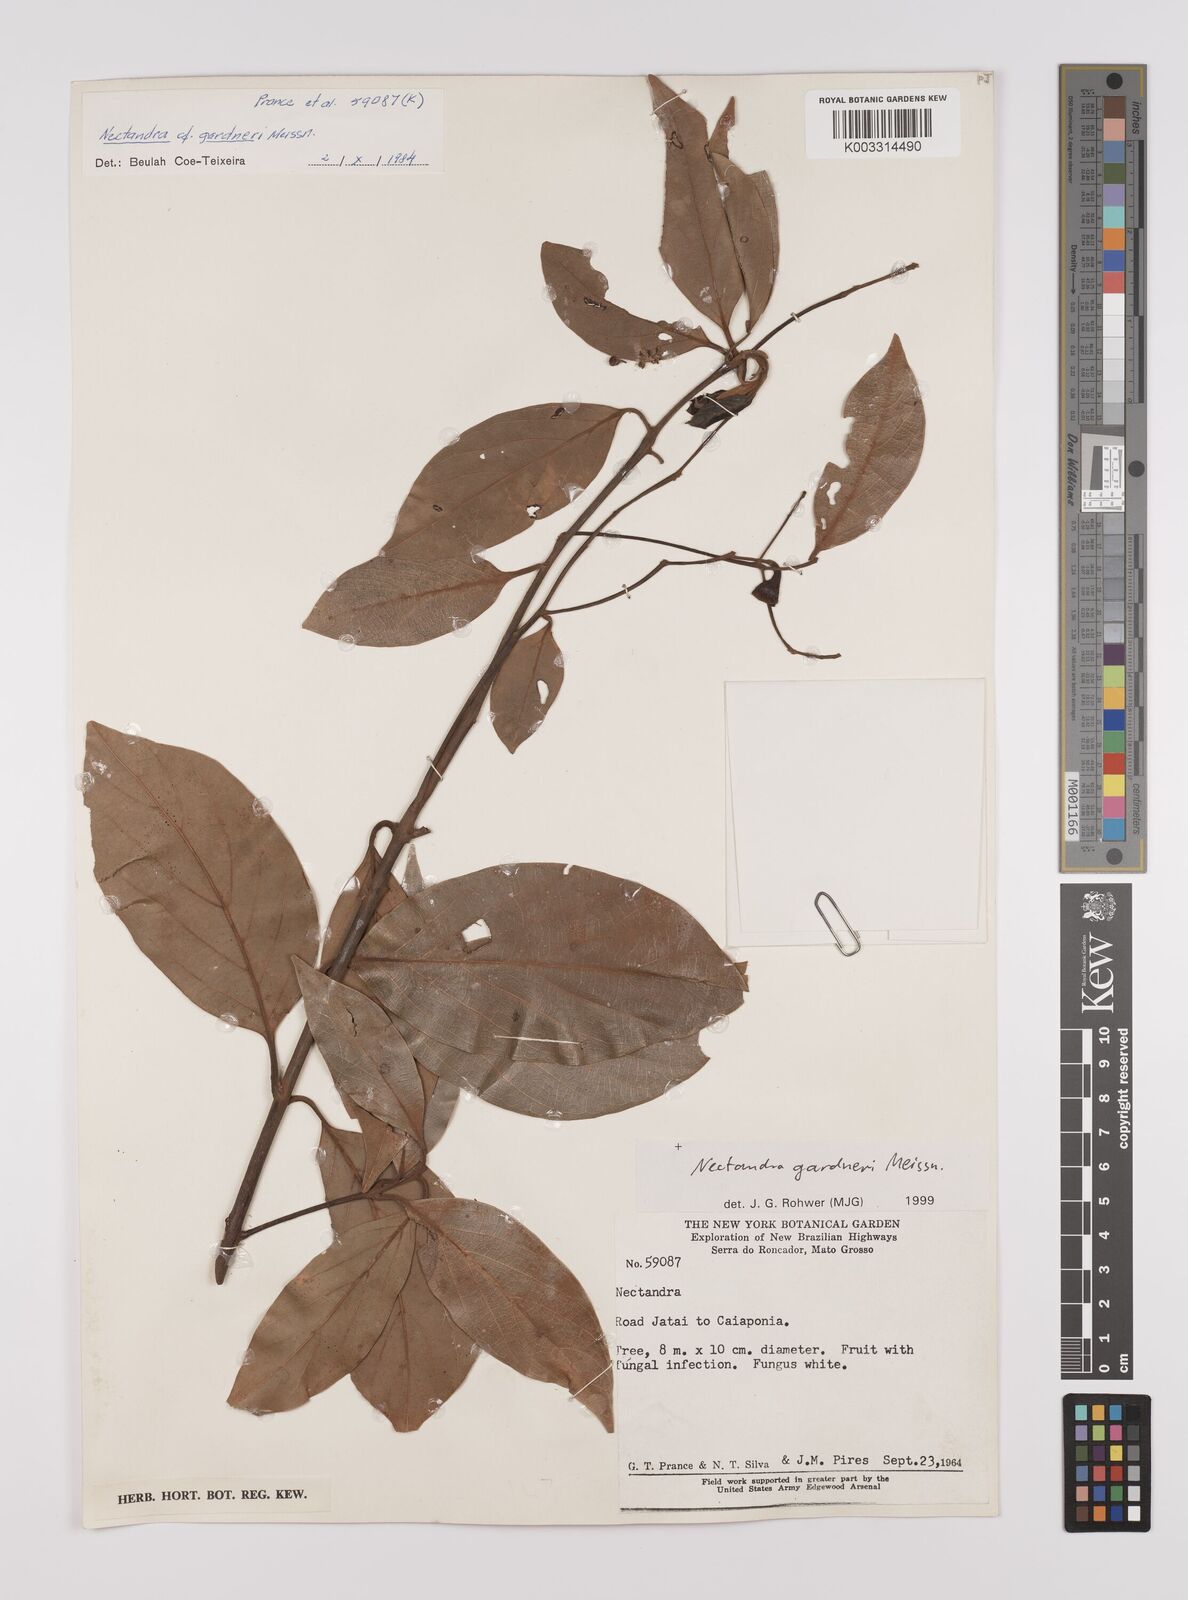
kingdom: Plantae
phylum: Tracheophyta
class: Magnoliopsida
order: Laurales
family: Lauraceae
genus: Nectandra
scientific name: Nectandra gardneri
